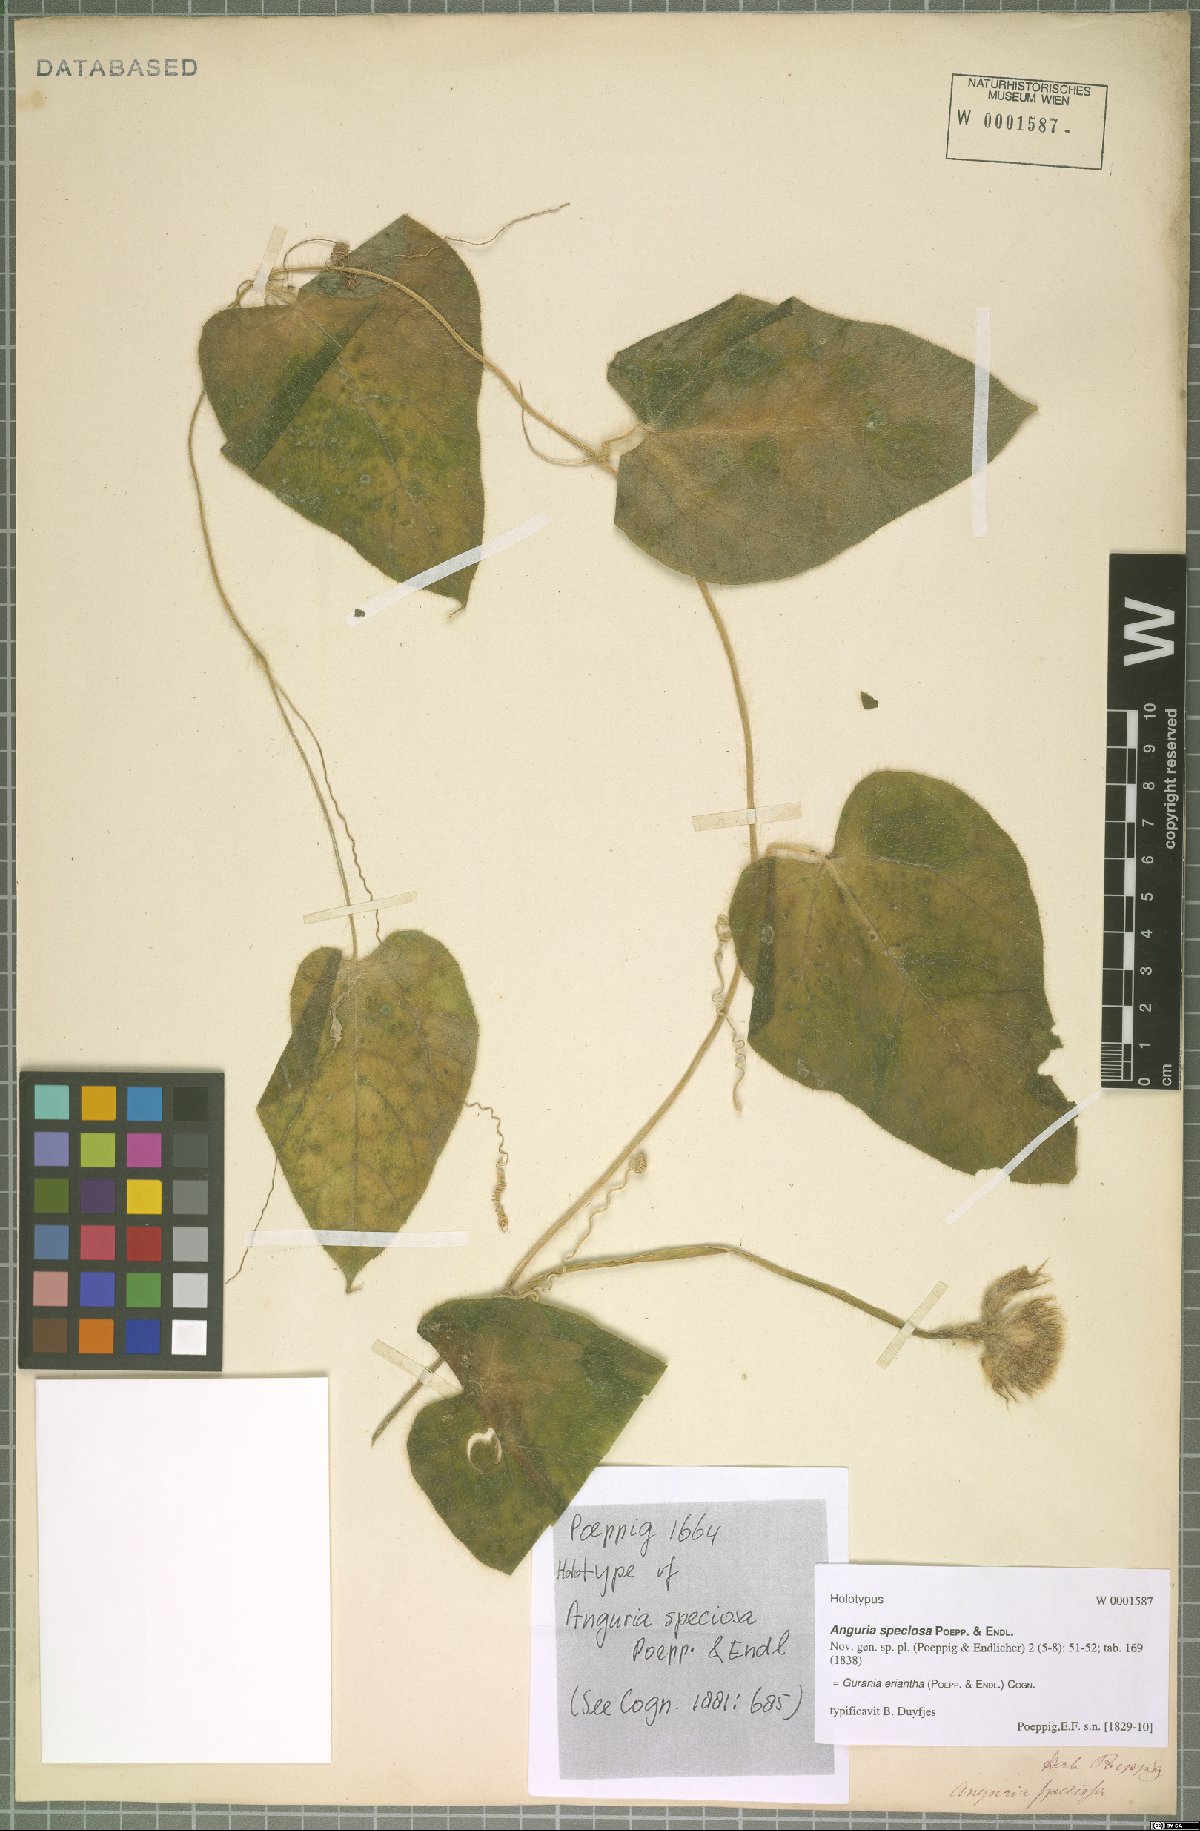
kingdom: Plantae
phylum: Tracheophyta
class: Magnoliopsida
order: Cucurbitales
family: Cucurbitaceae
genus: Gurania
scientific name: Gurania eriantha
